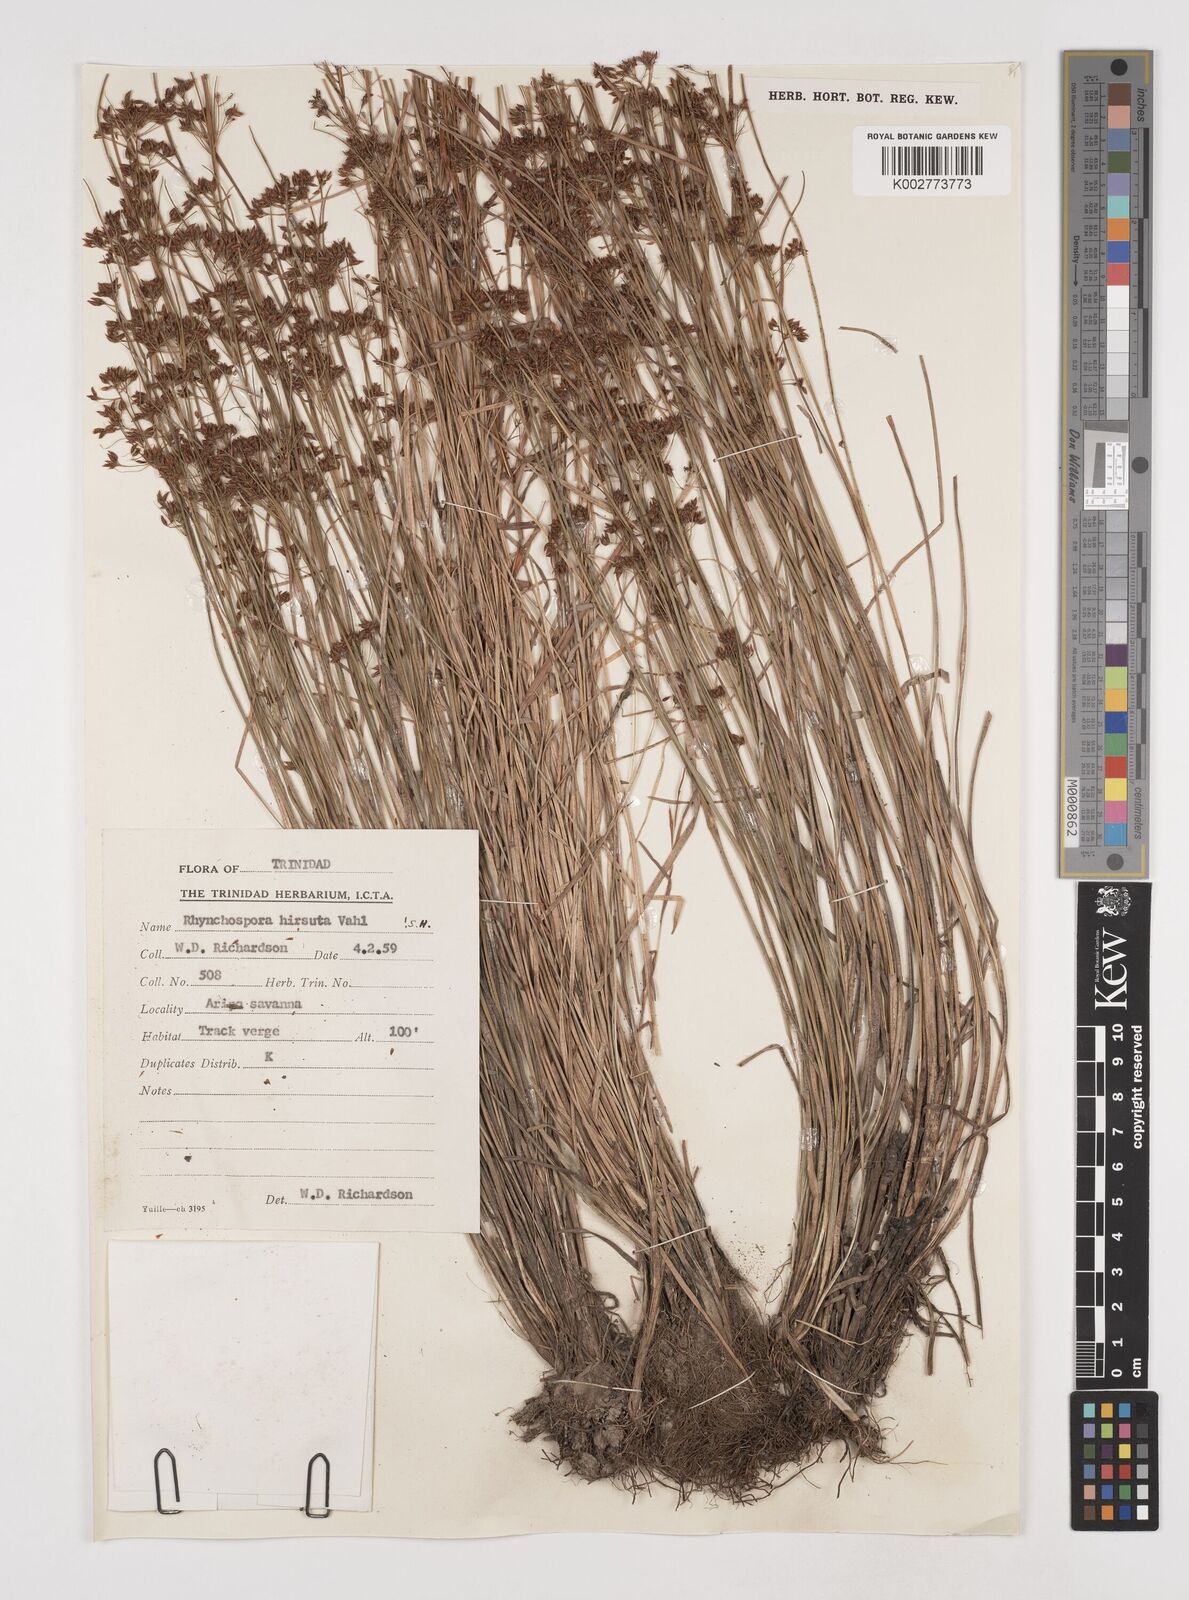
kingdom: Plantae
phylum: Tracheophyta
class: Liliopsida
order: Poales
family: Cyperaceae
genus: Rhynchospora
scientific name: Rhynchospora hirsuta
